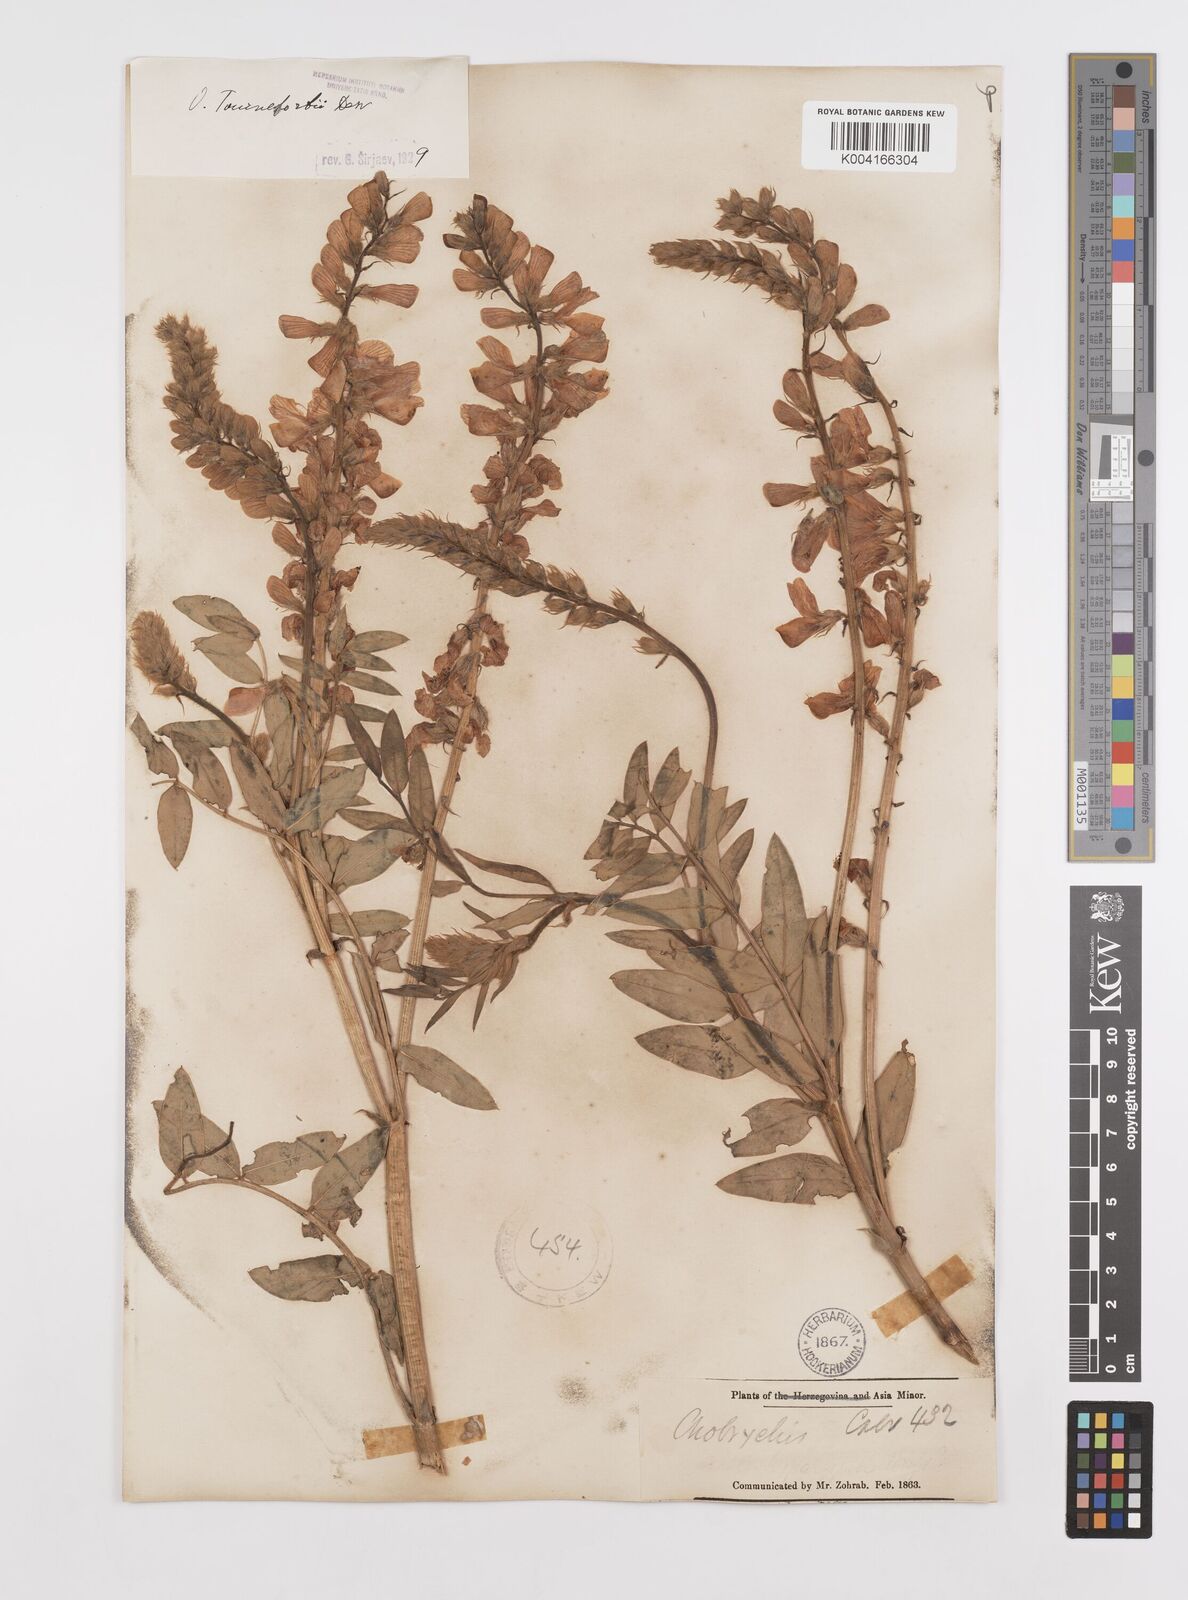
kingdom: Plantae
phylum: Tracheophyta
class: Magnoliopsida
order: Fabales
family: Fabaceae
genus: Onobrychis
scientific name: Onobrychis tournefortii
